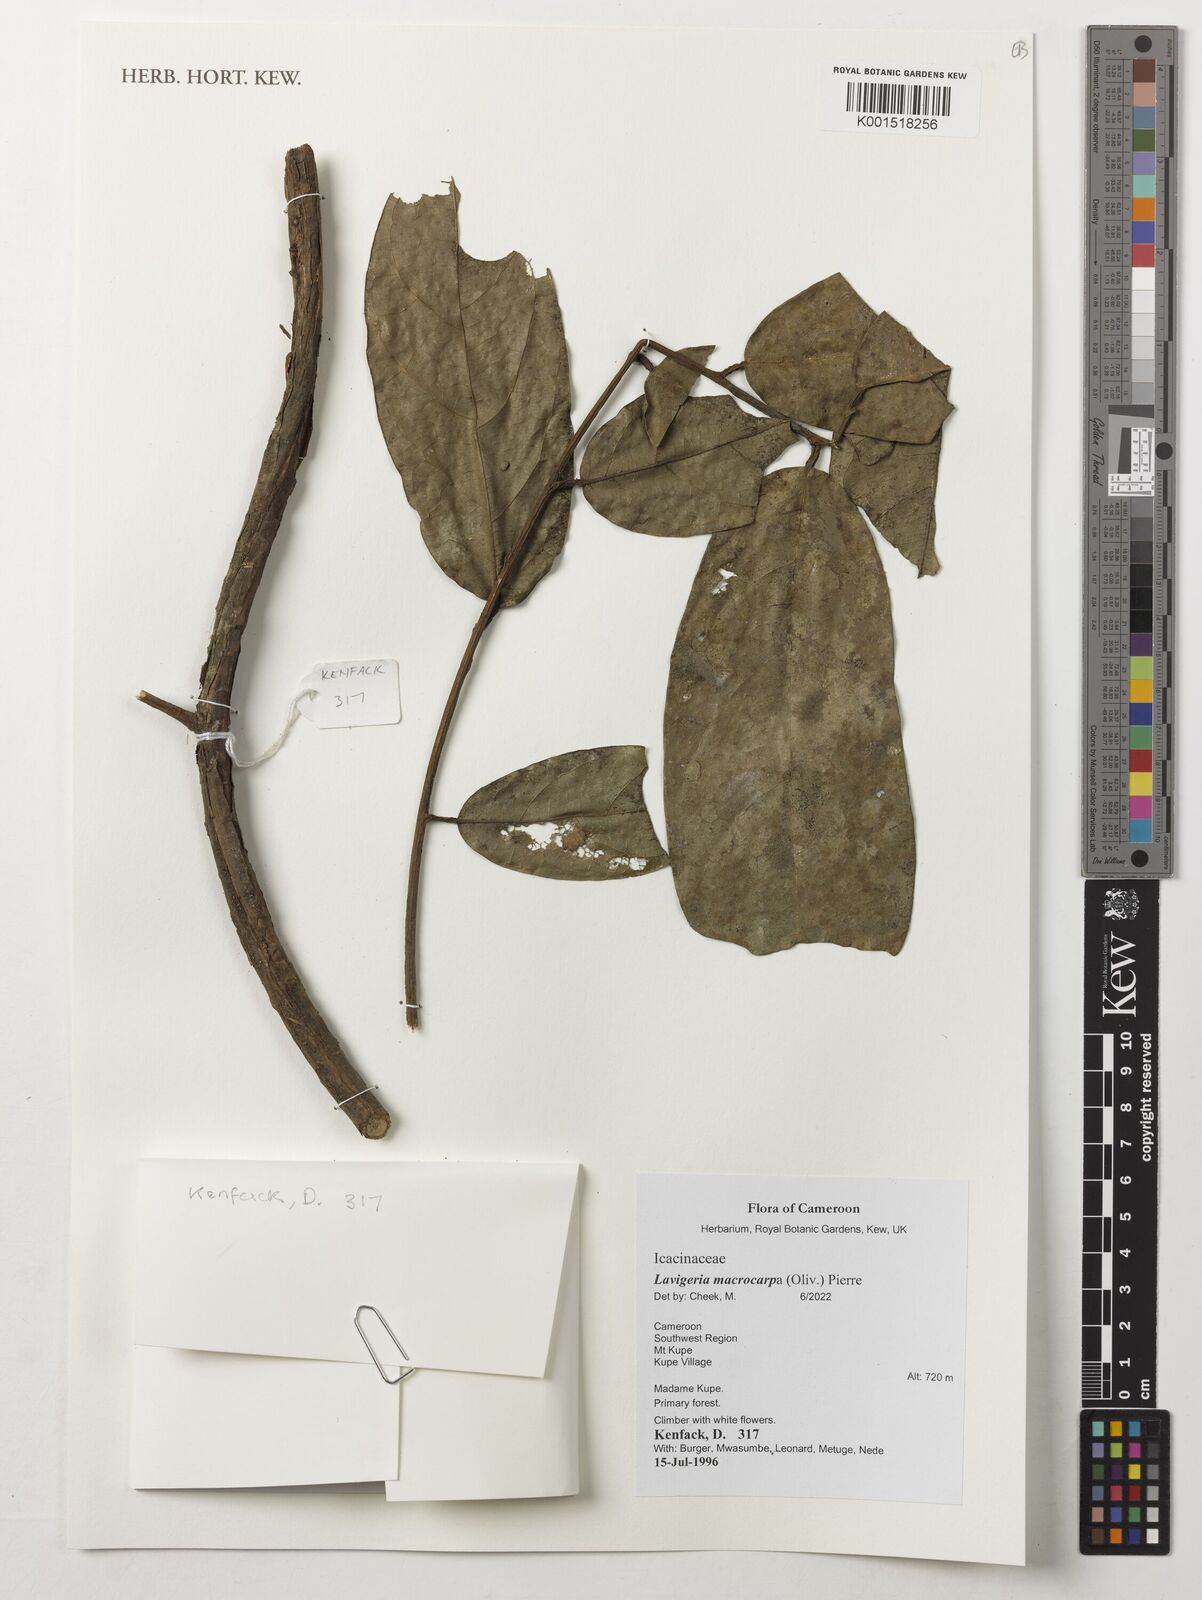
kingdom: Plantae
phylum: Tracheophyta
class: Magnoliopsida
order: Icacinales
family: Icacinaceae
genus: Lavigeria
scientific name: Lavigeria macrocarpa
